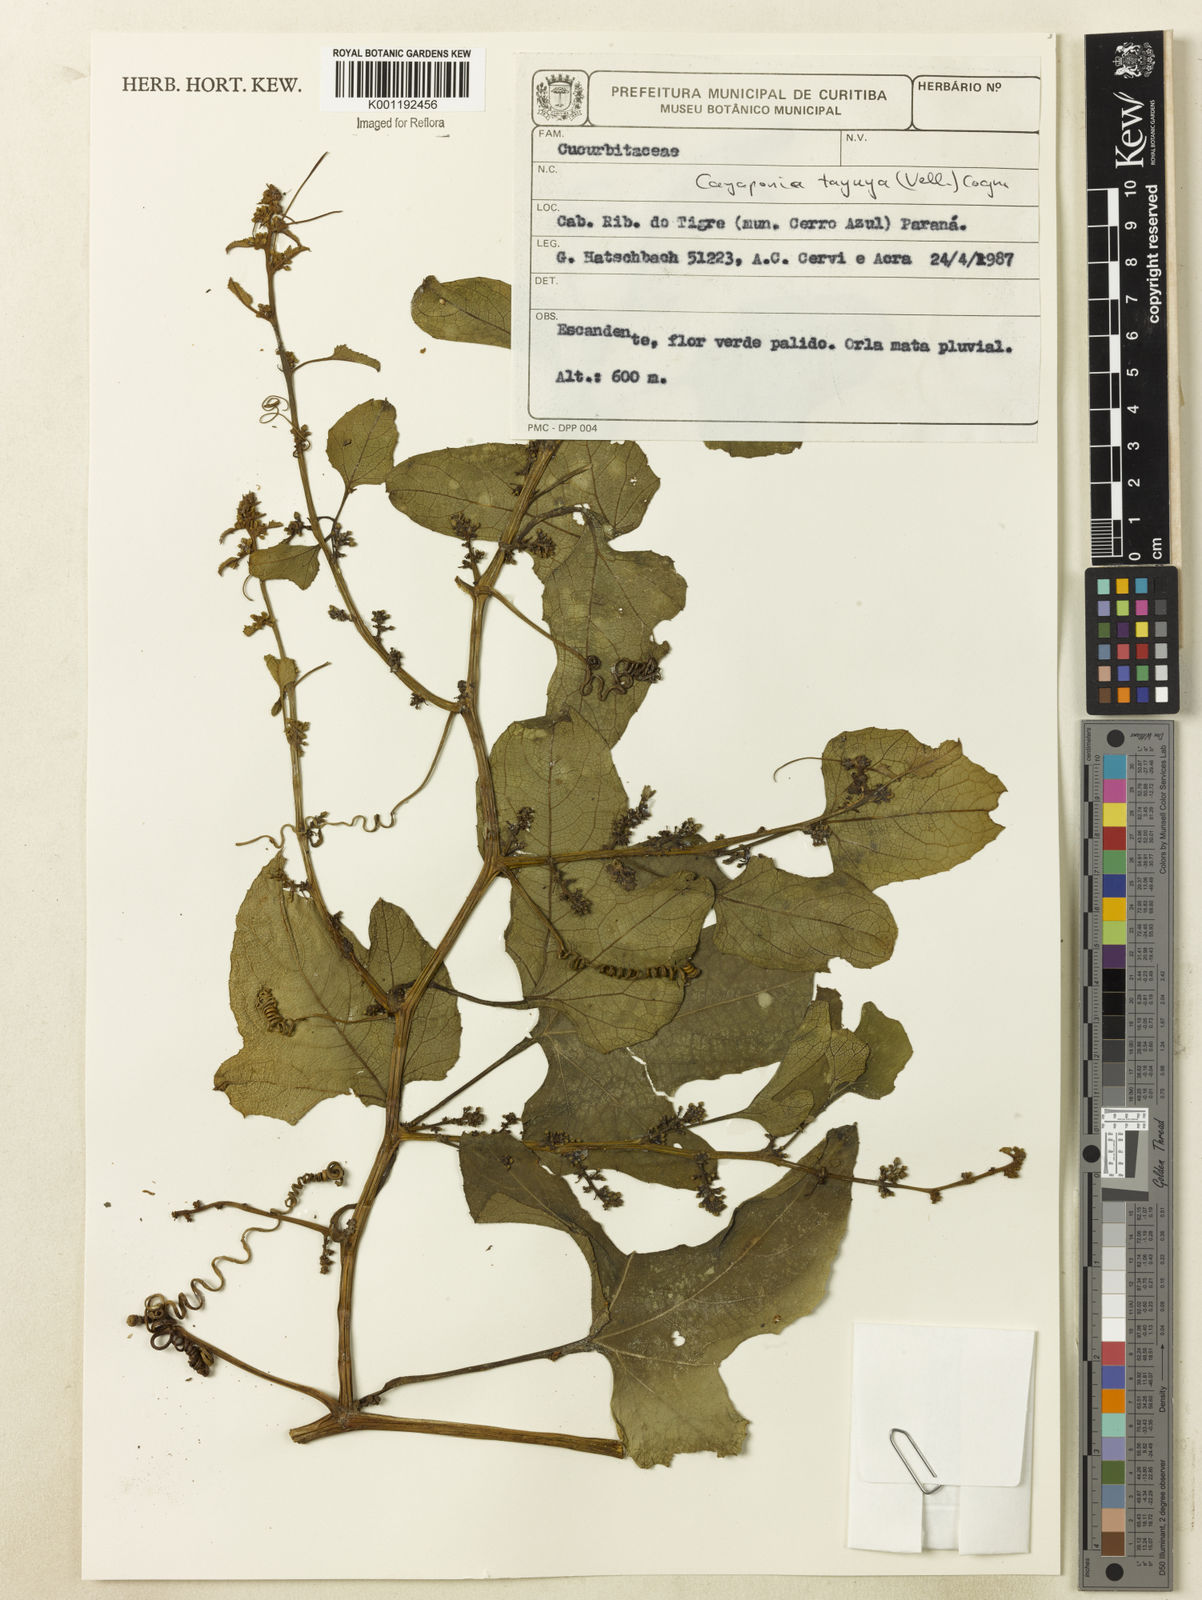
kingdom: Plantae
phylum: Tracheophyta
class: Magnoliopsida
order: Cucurbitales
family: Cucurbitaceae
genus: Cayaponia
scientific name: Cayaponia tayuya
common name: Tayuya
